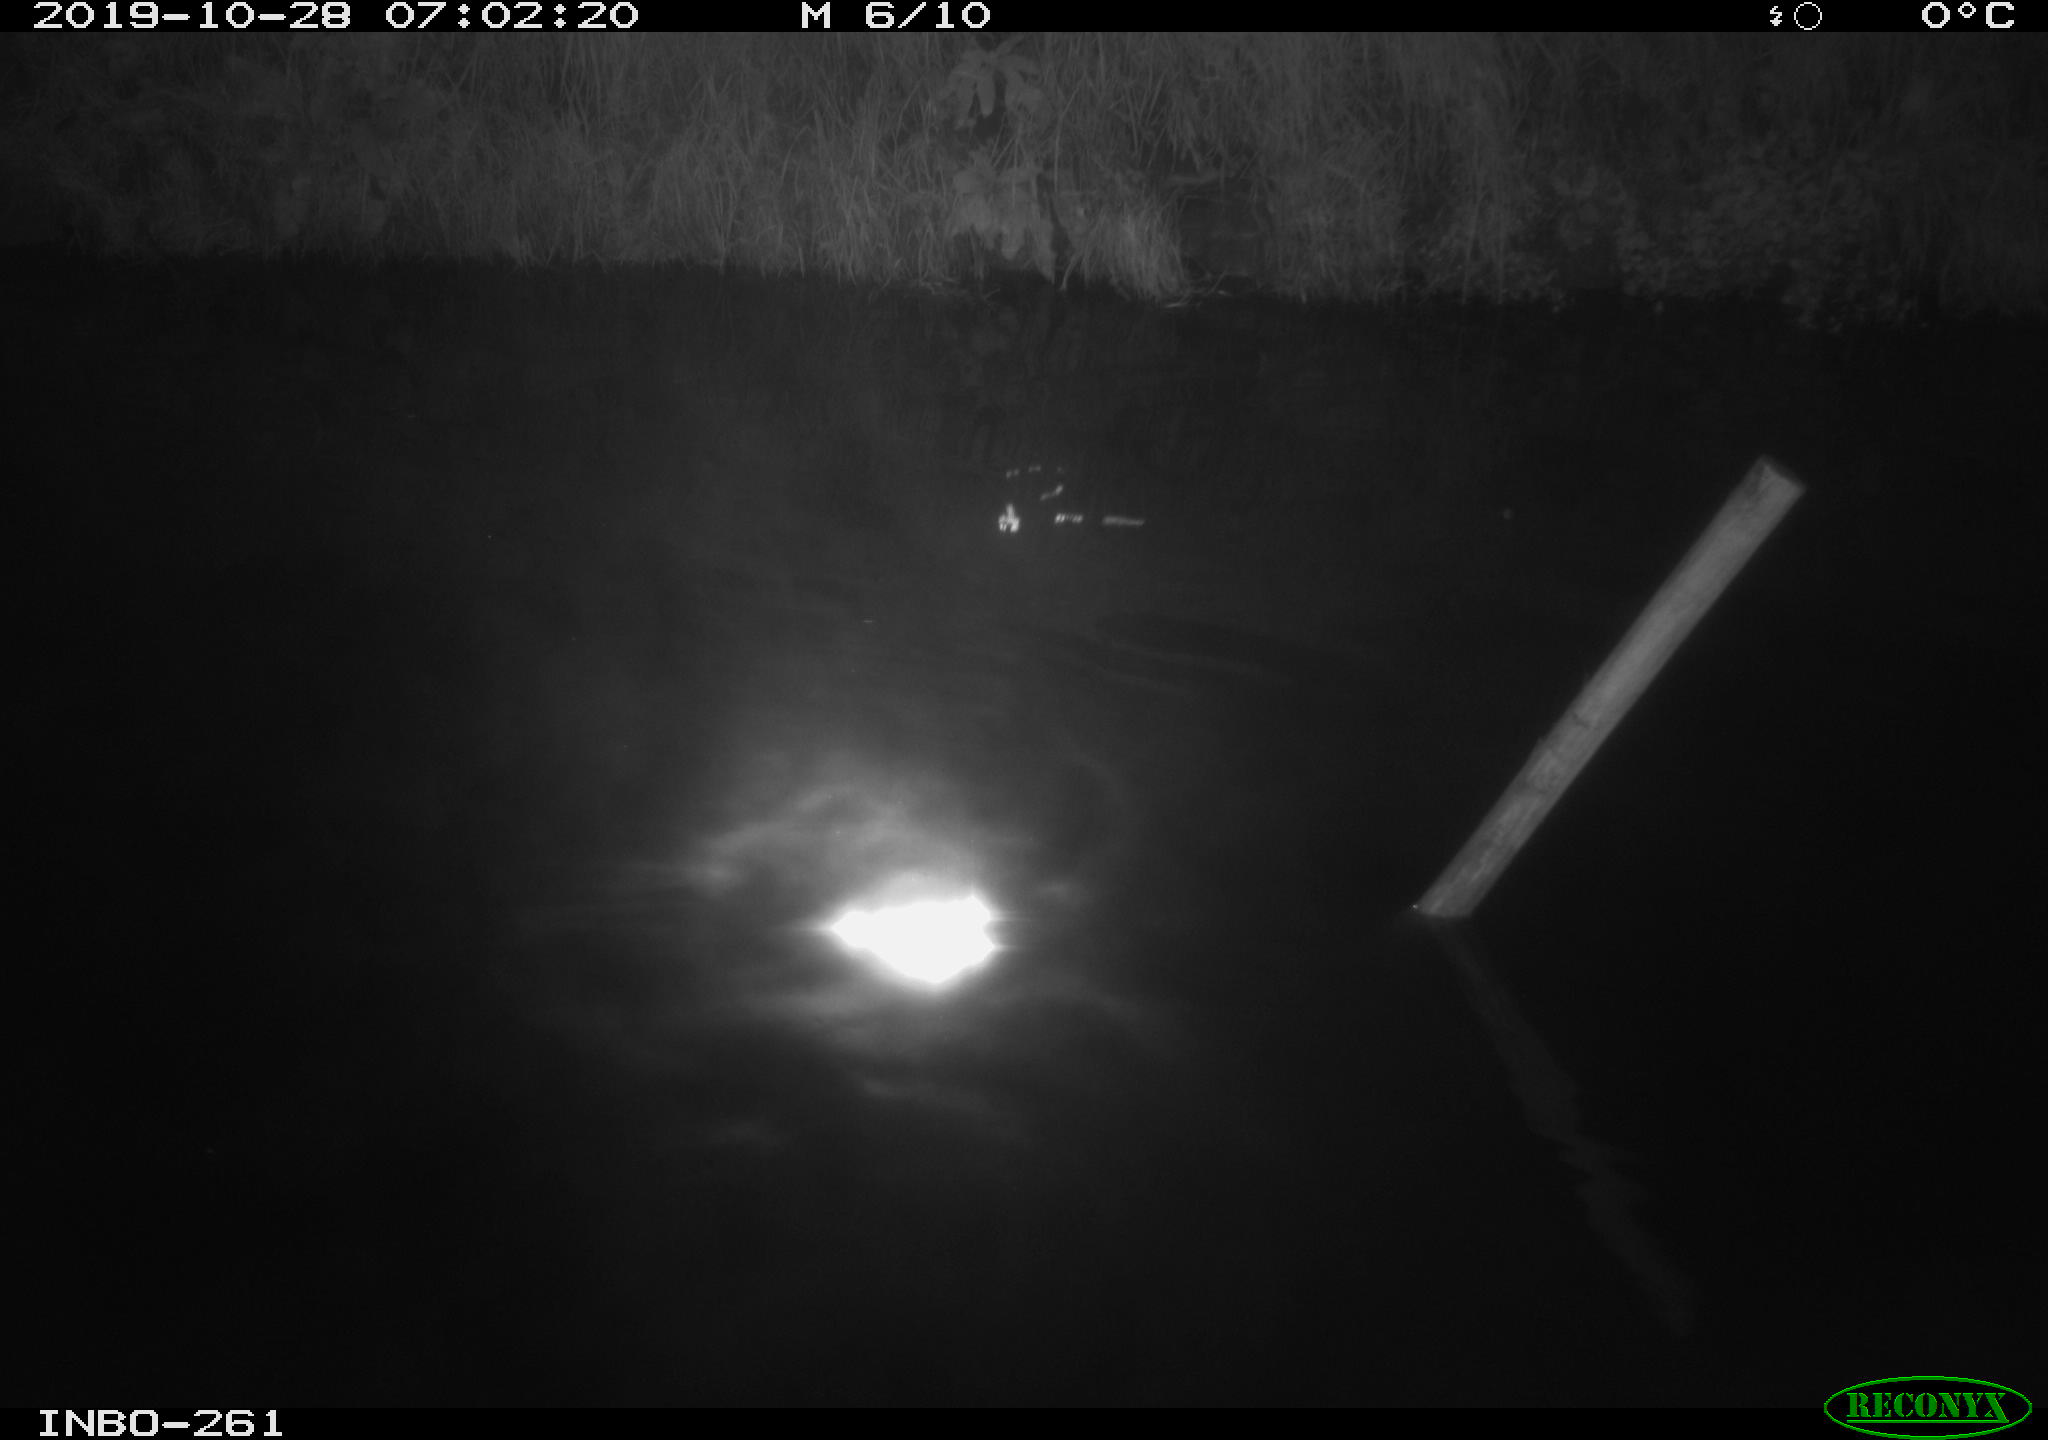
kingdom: Animalia
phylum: Chordata
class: Aves
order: Anseriformes
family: Anatidae
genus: Anas
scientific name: Anas platyrhynchos
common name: Mallard
